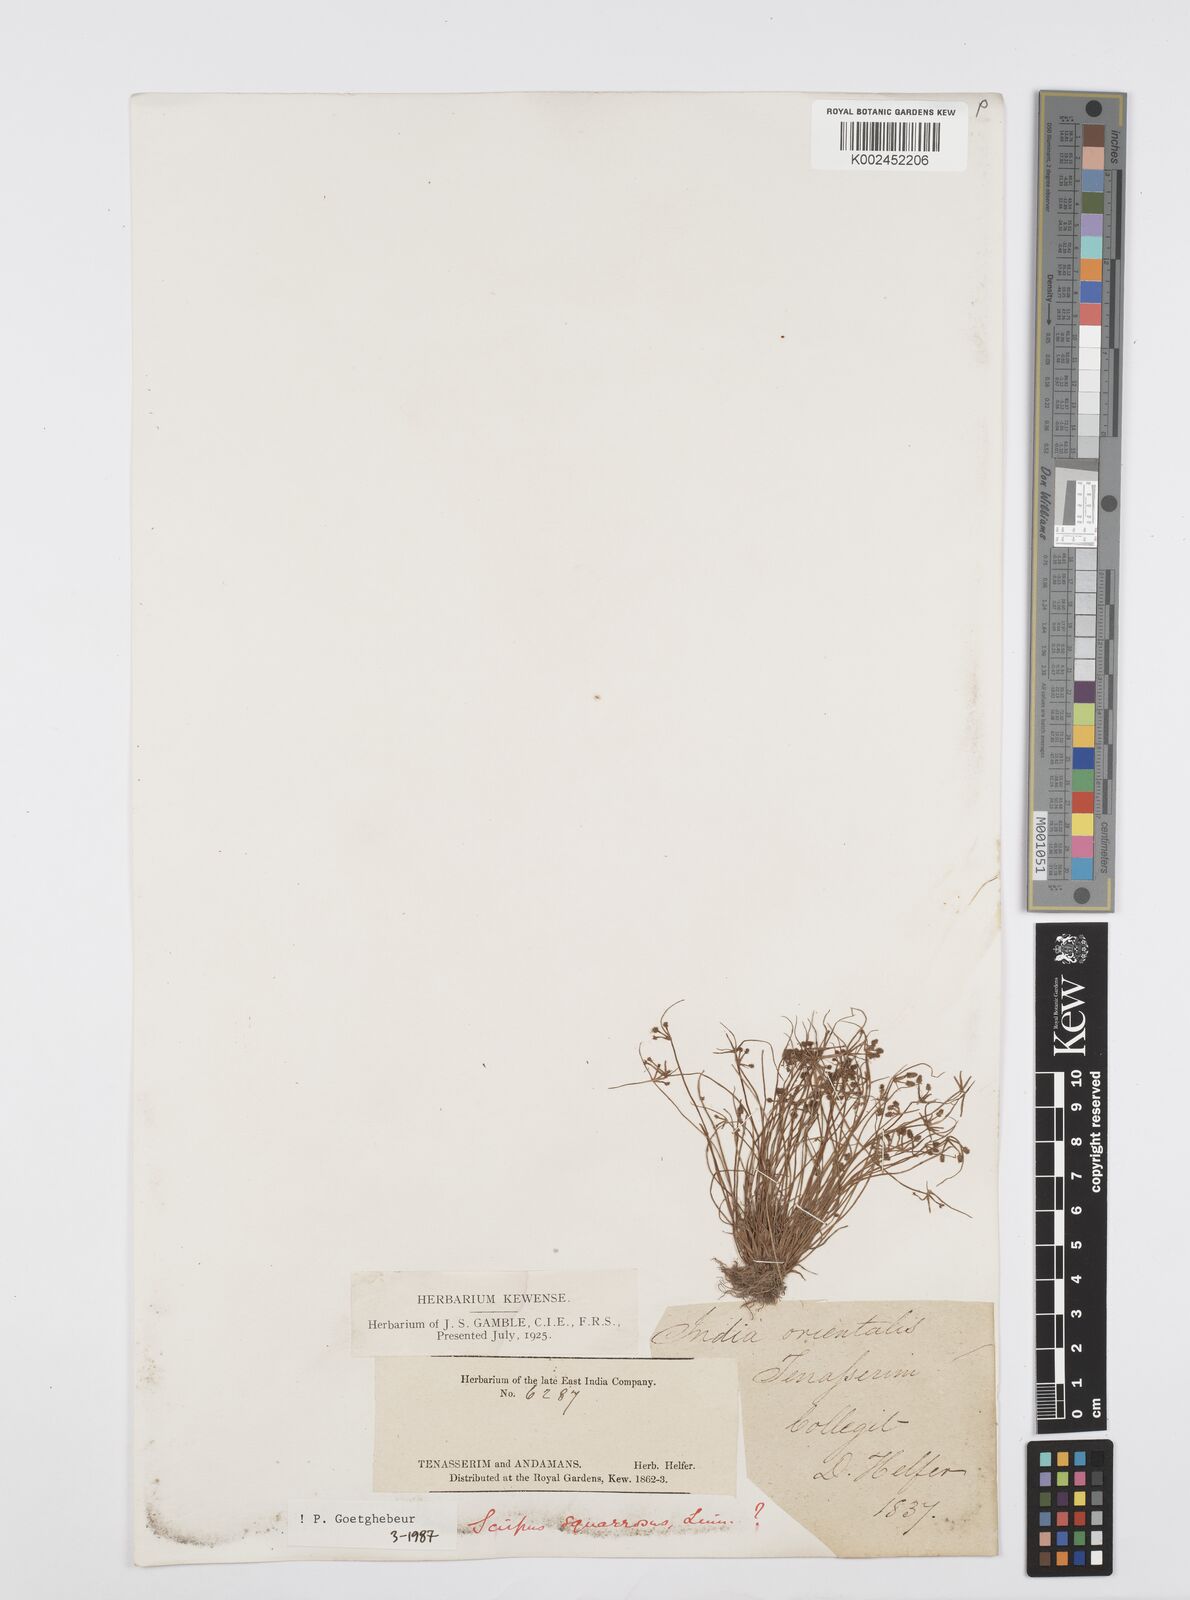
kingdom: Plantae
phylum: Tracheophyta
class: Liliopsida
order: Poales
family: Cyperaceae
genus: Cyperus
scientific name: Cyperus squarrosus
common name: Awned cyperus
